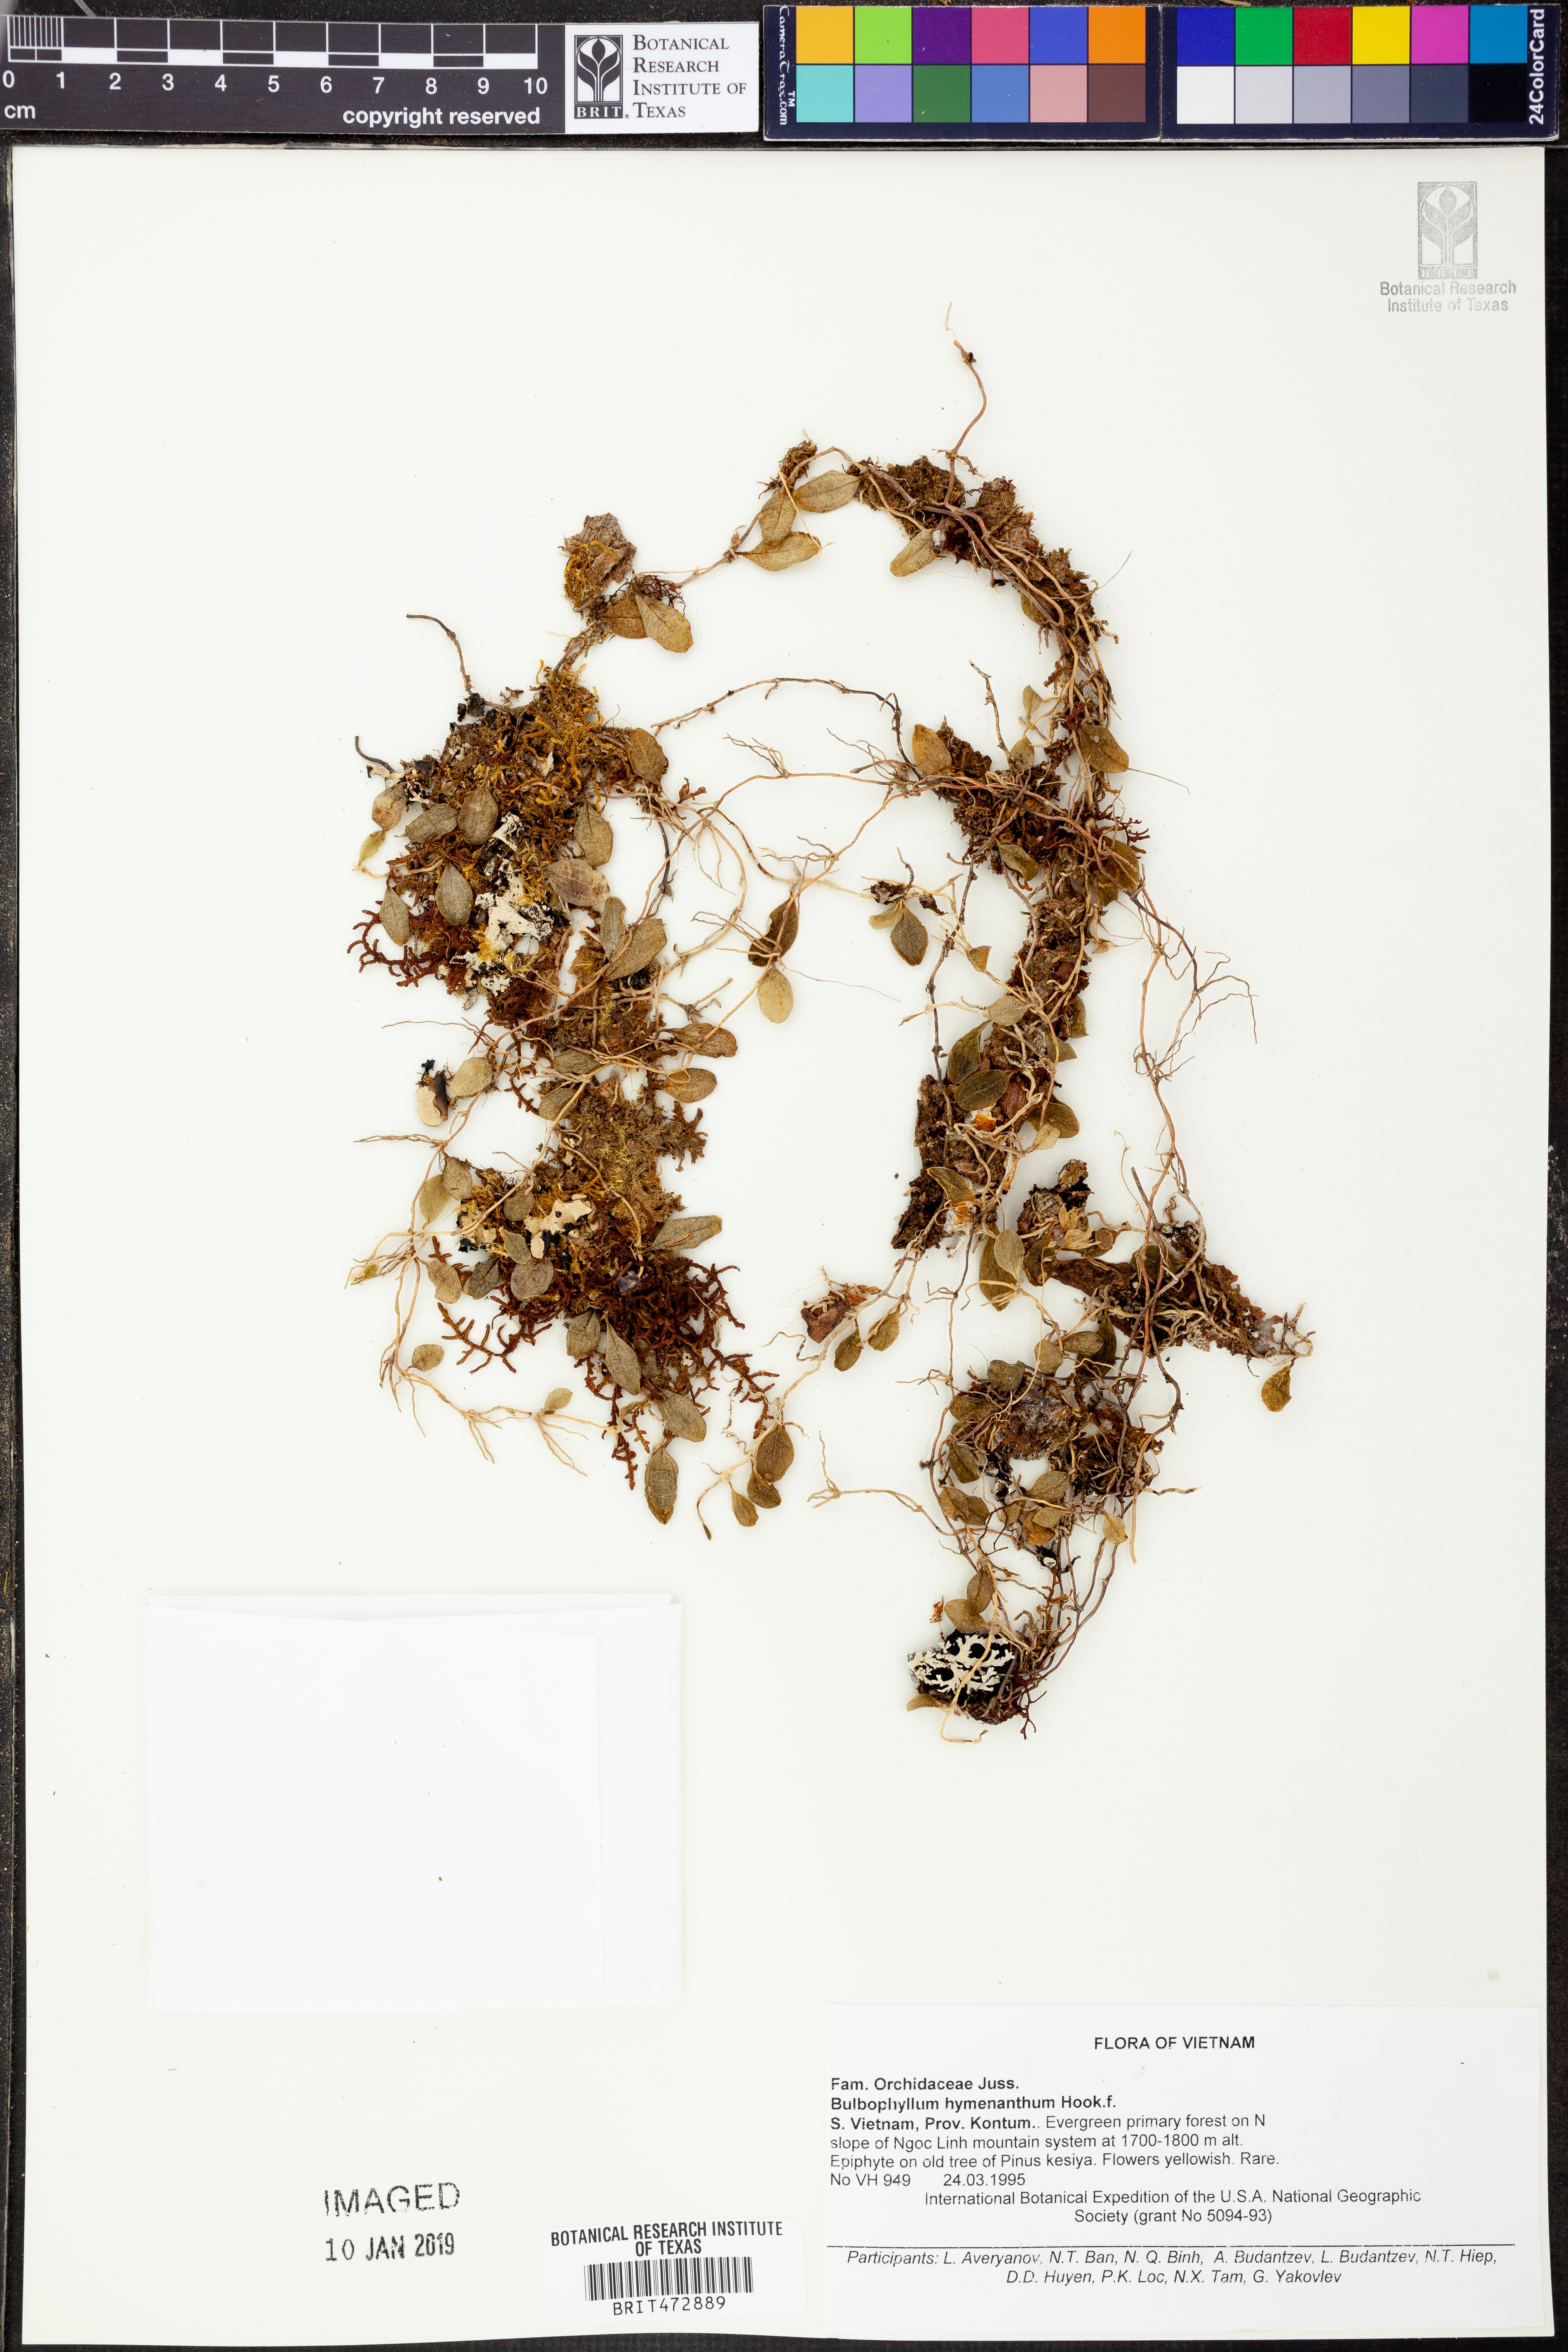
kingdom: Plantae
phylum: Tracheophyta
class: Liliopsida
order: Asparagales
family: Orchidaceae
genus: Bulbophyllum
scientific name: Bulbophyllum hymenanthum
